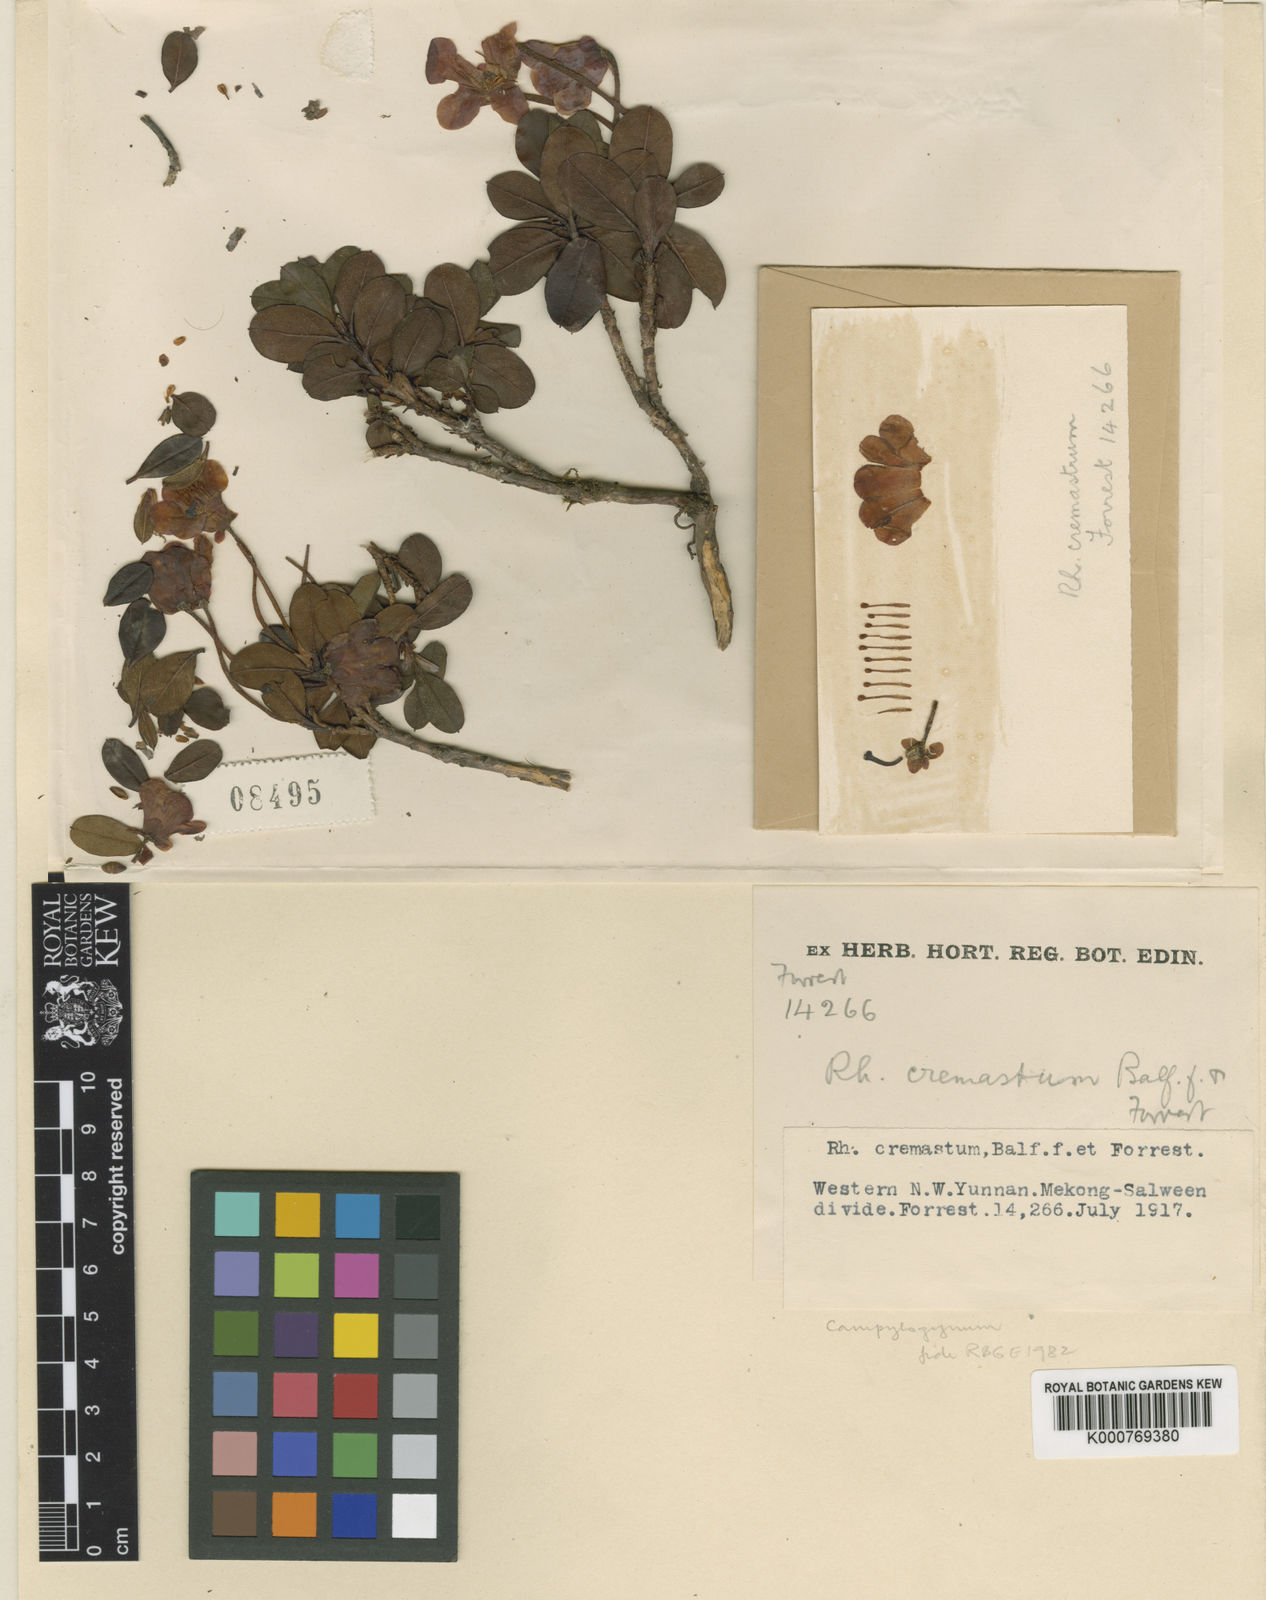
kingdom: Plantae
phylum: Tracheophyta
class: Magnoliopsida
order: Ericales
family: Ericaceae
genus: Rhododendron
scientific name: Rhododendron campylogynum
